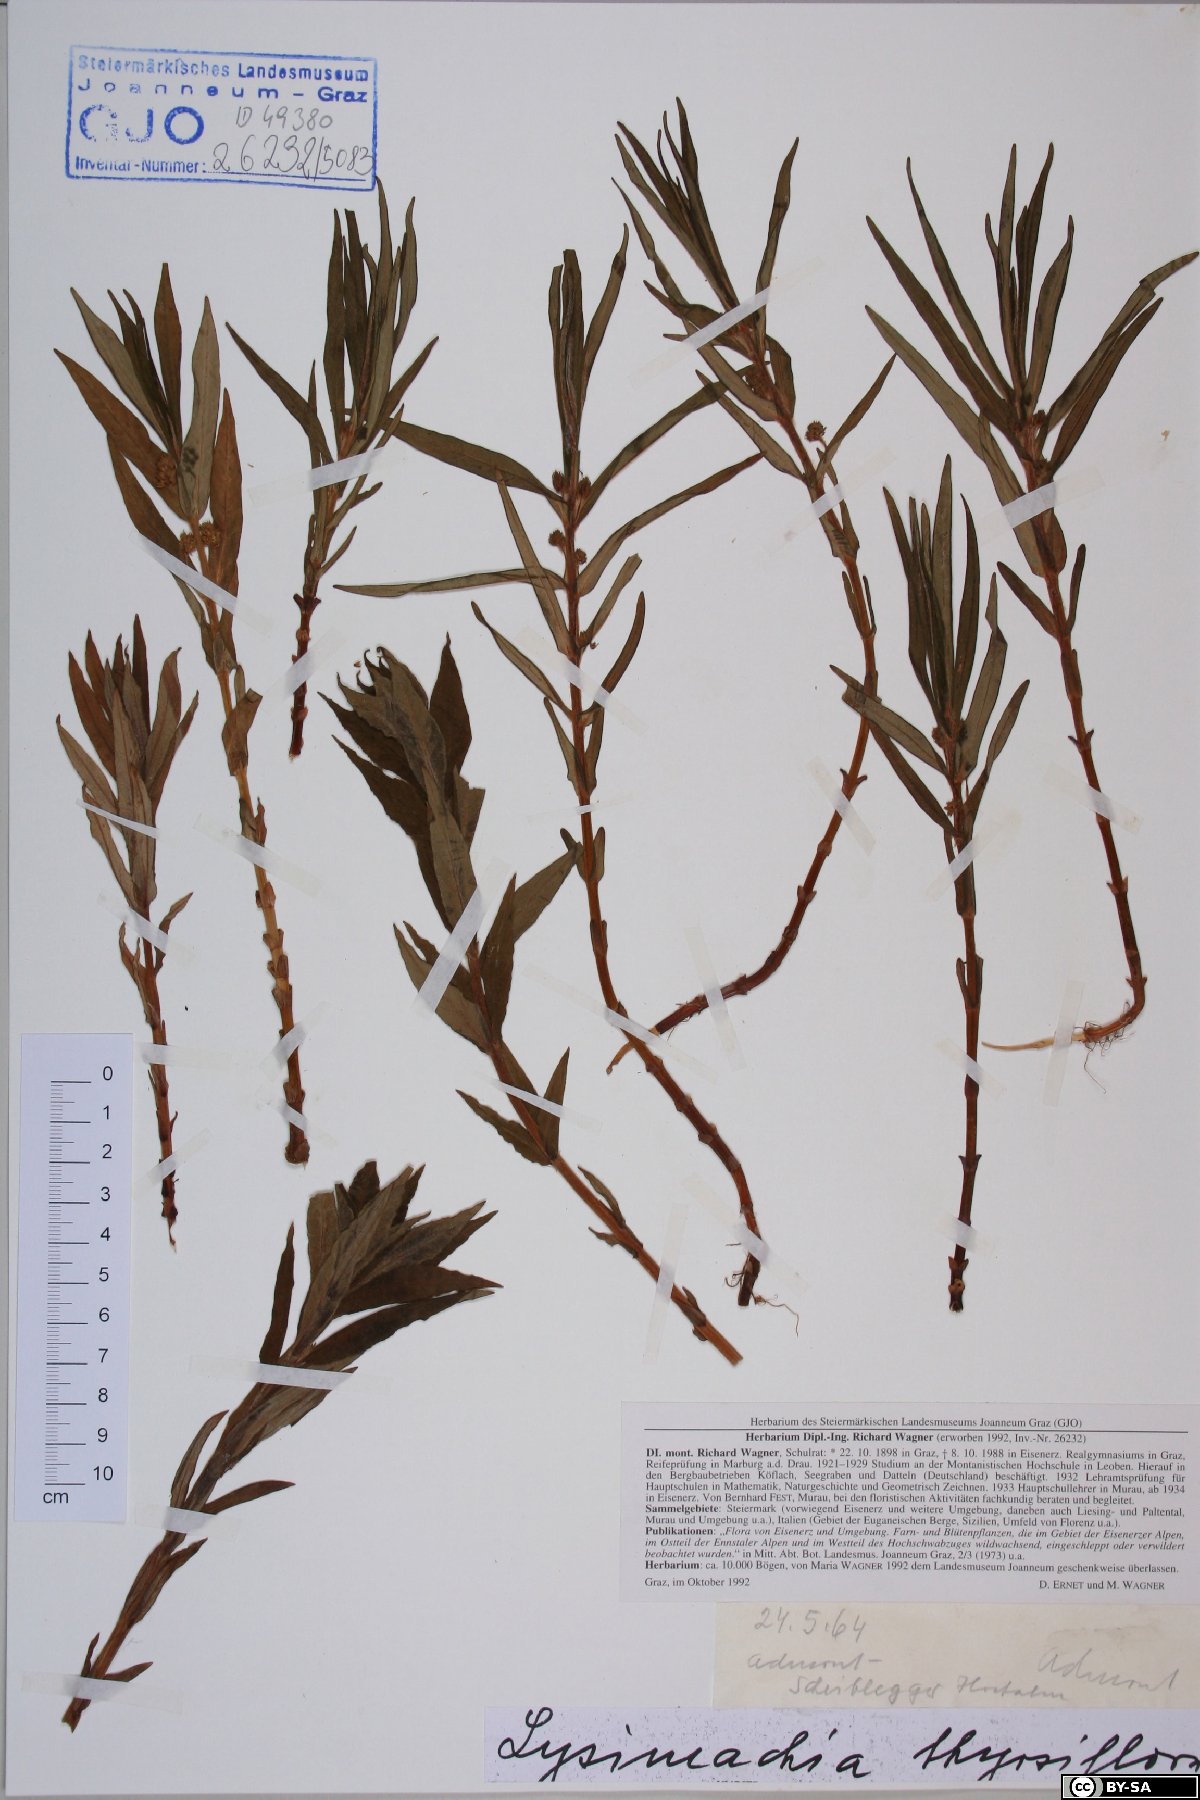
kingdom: Plantae
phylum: Tracheophyta
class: Magnoliopsida
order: Ericales
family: Primulaceae
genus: Lysimachia
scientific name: Lysimachia thyrsiflora
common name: Tufted loosestrife
